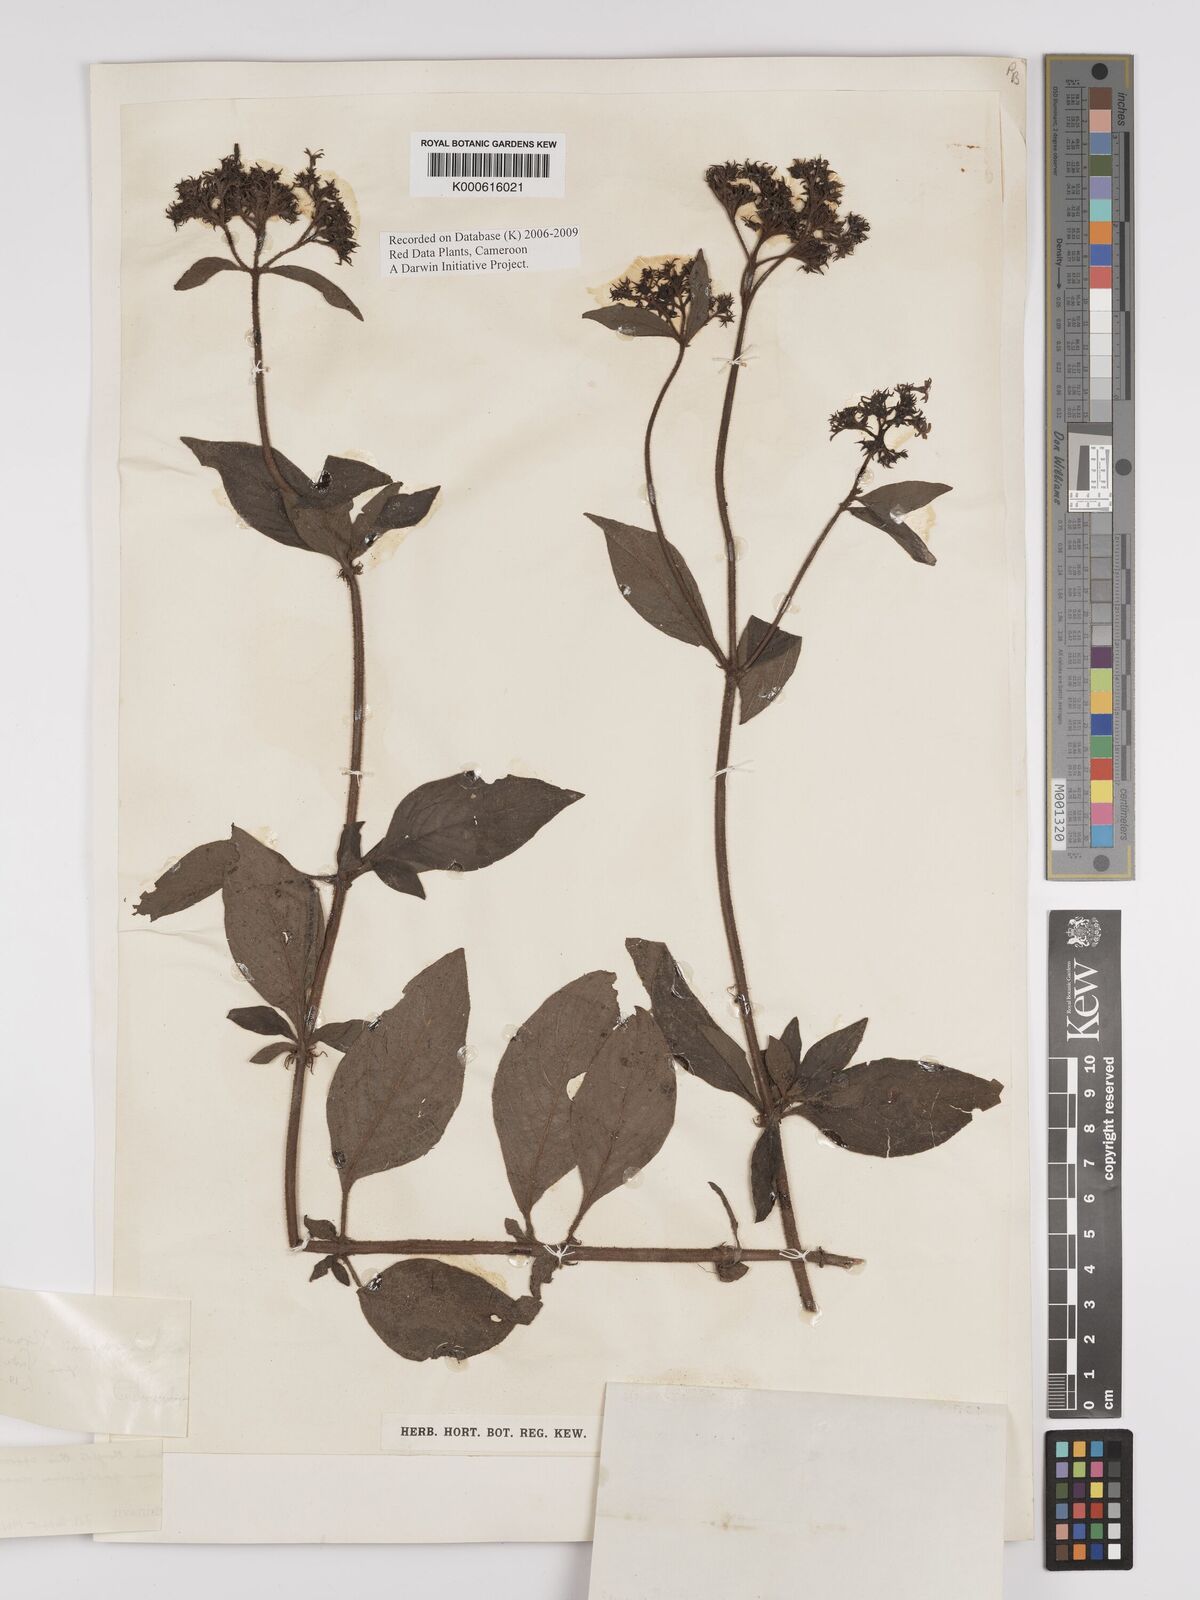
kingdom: Plantae
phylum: Tracheophyta
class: Magnoliopsida
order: Gentianales
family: Rubiaceae
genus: Phyllopentas
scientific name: Phyllopentas ledermannii
